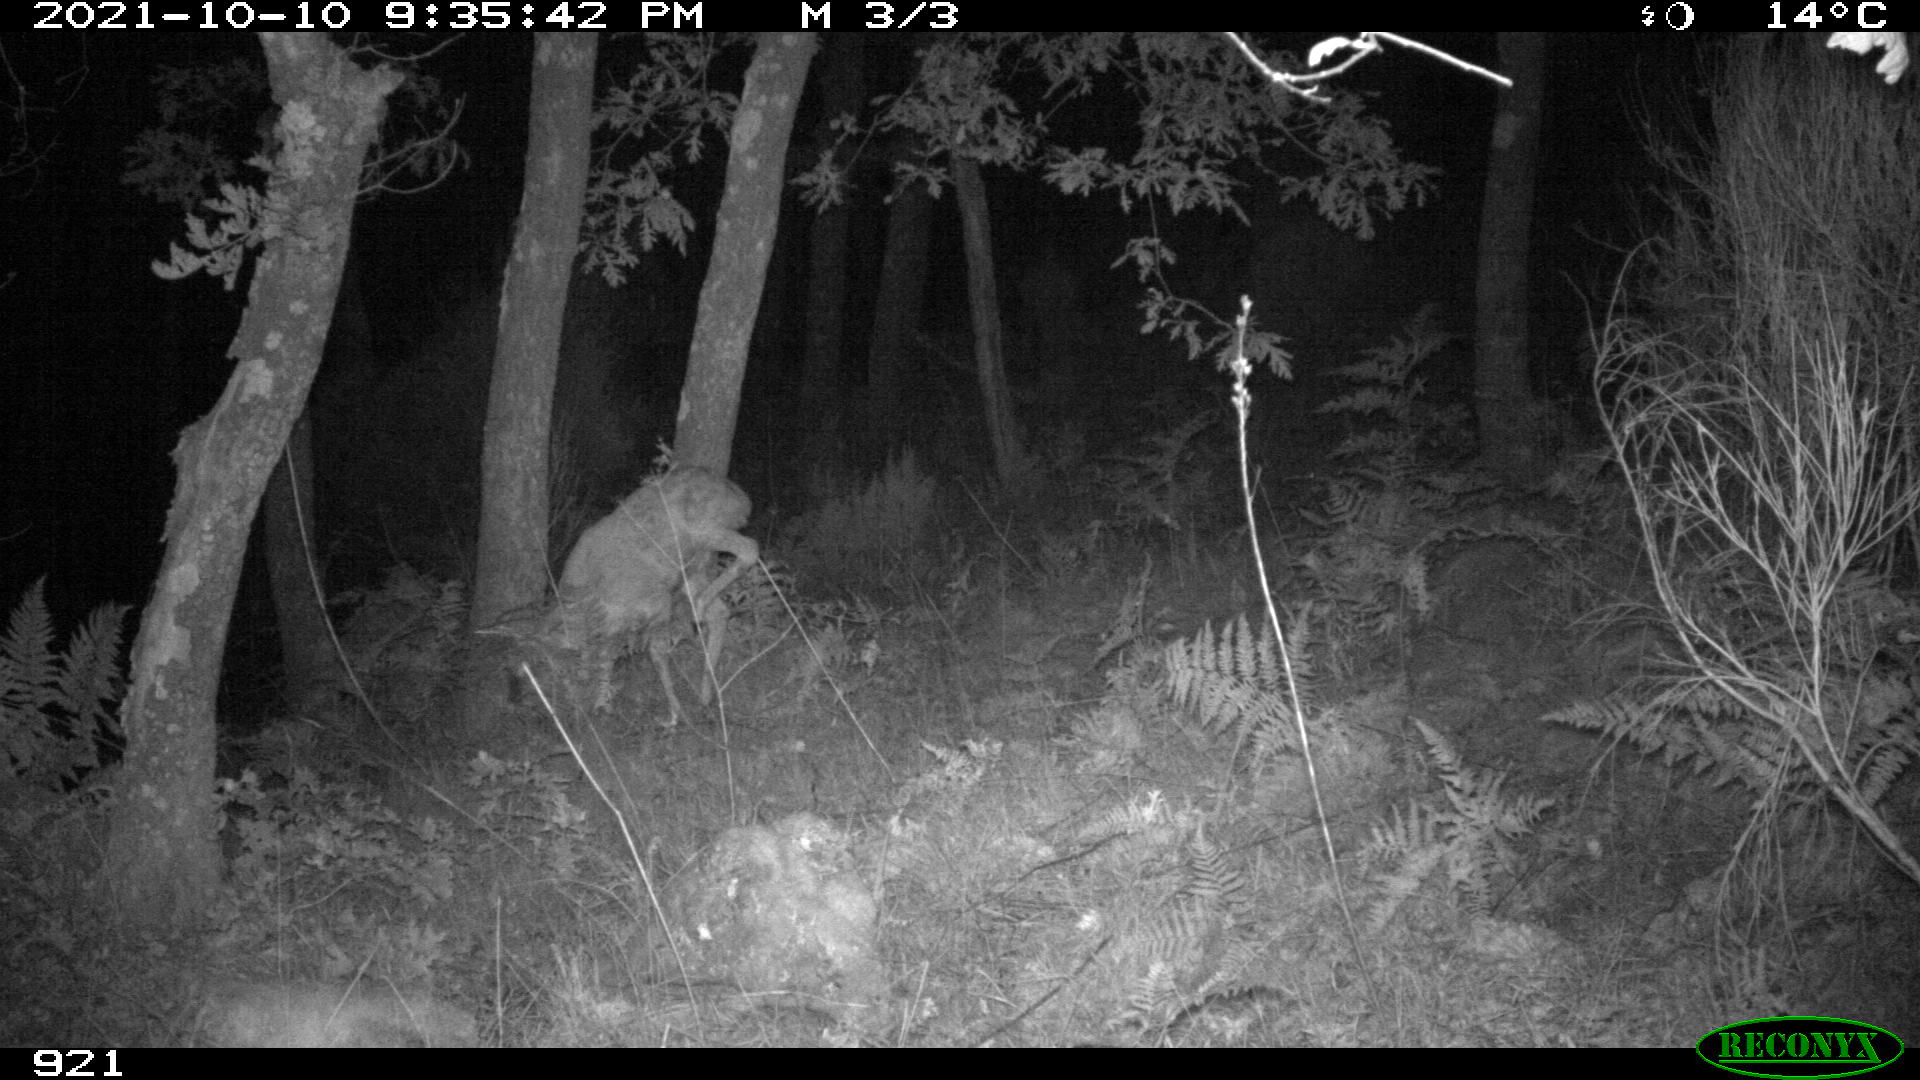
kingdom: Animalia
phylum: Chordata
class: Mammalia
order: Artiodactyla
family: Cervidae
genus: Capreolus
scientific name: Capreolus capreolus
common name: Western roe deer
